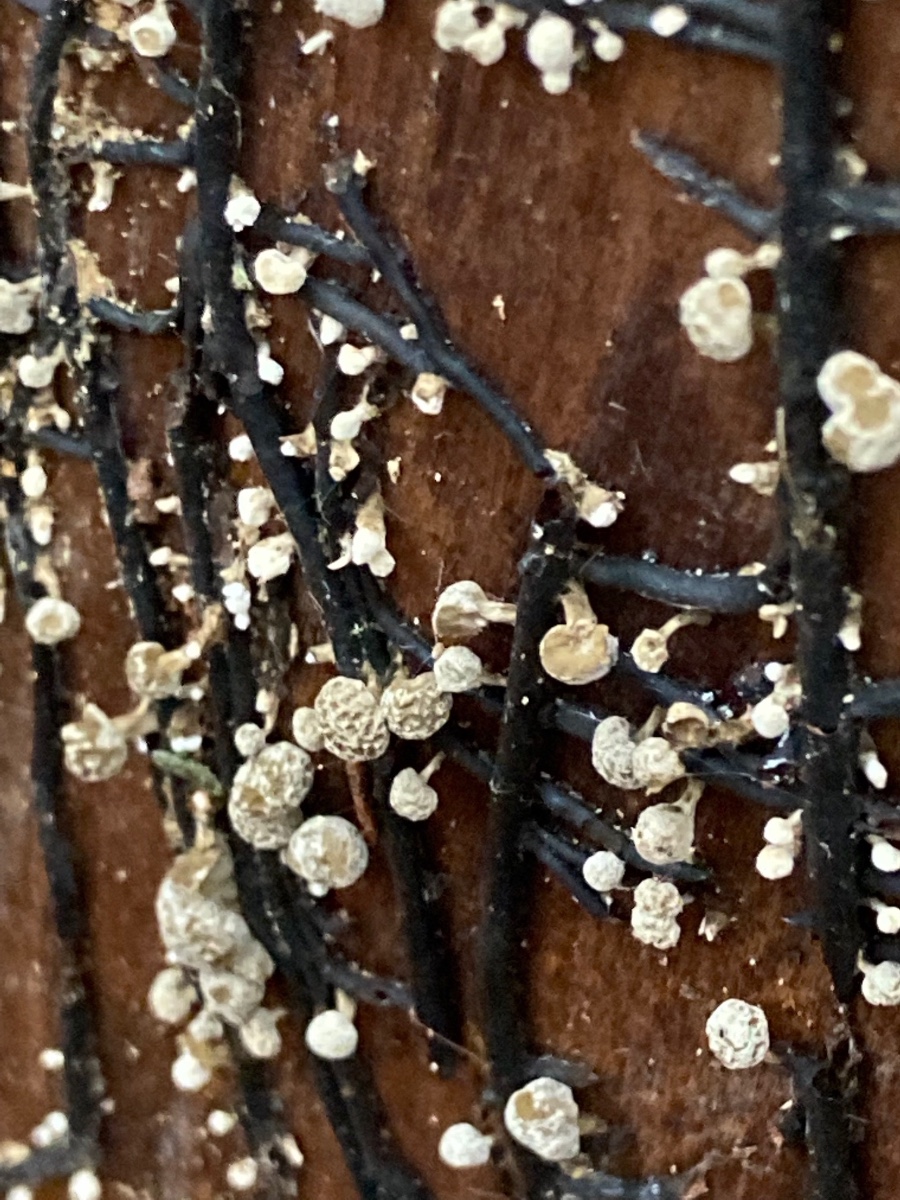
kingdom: Fungi
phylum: Basidiomycota
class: Atractiellomycetes
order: Atractiellales
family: Phleogenaceae
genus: Phleogena
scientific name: Phleogena faginea
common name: pudderkølle
